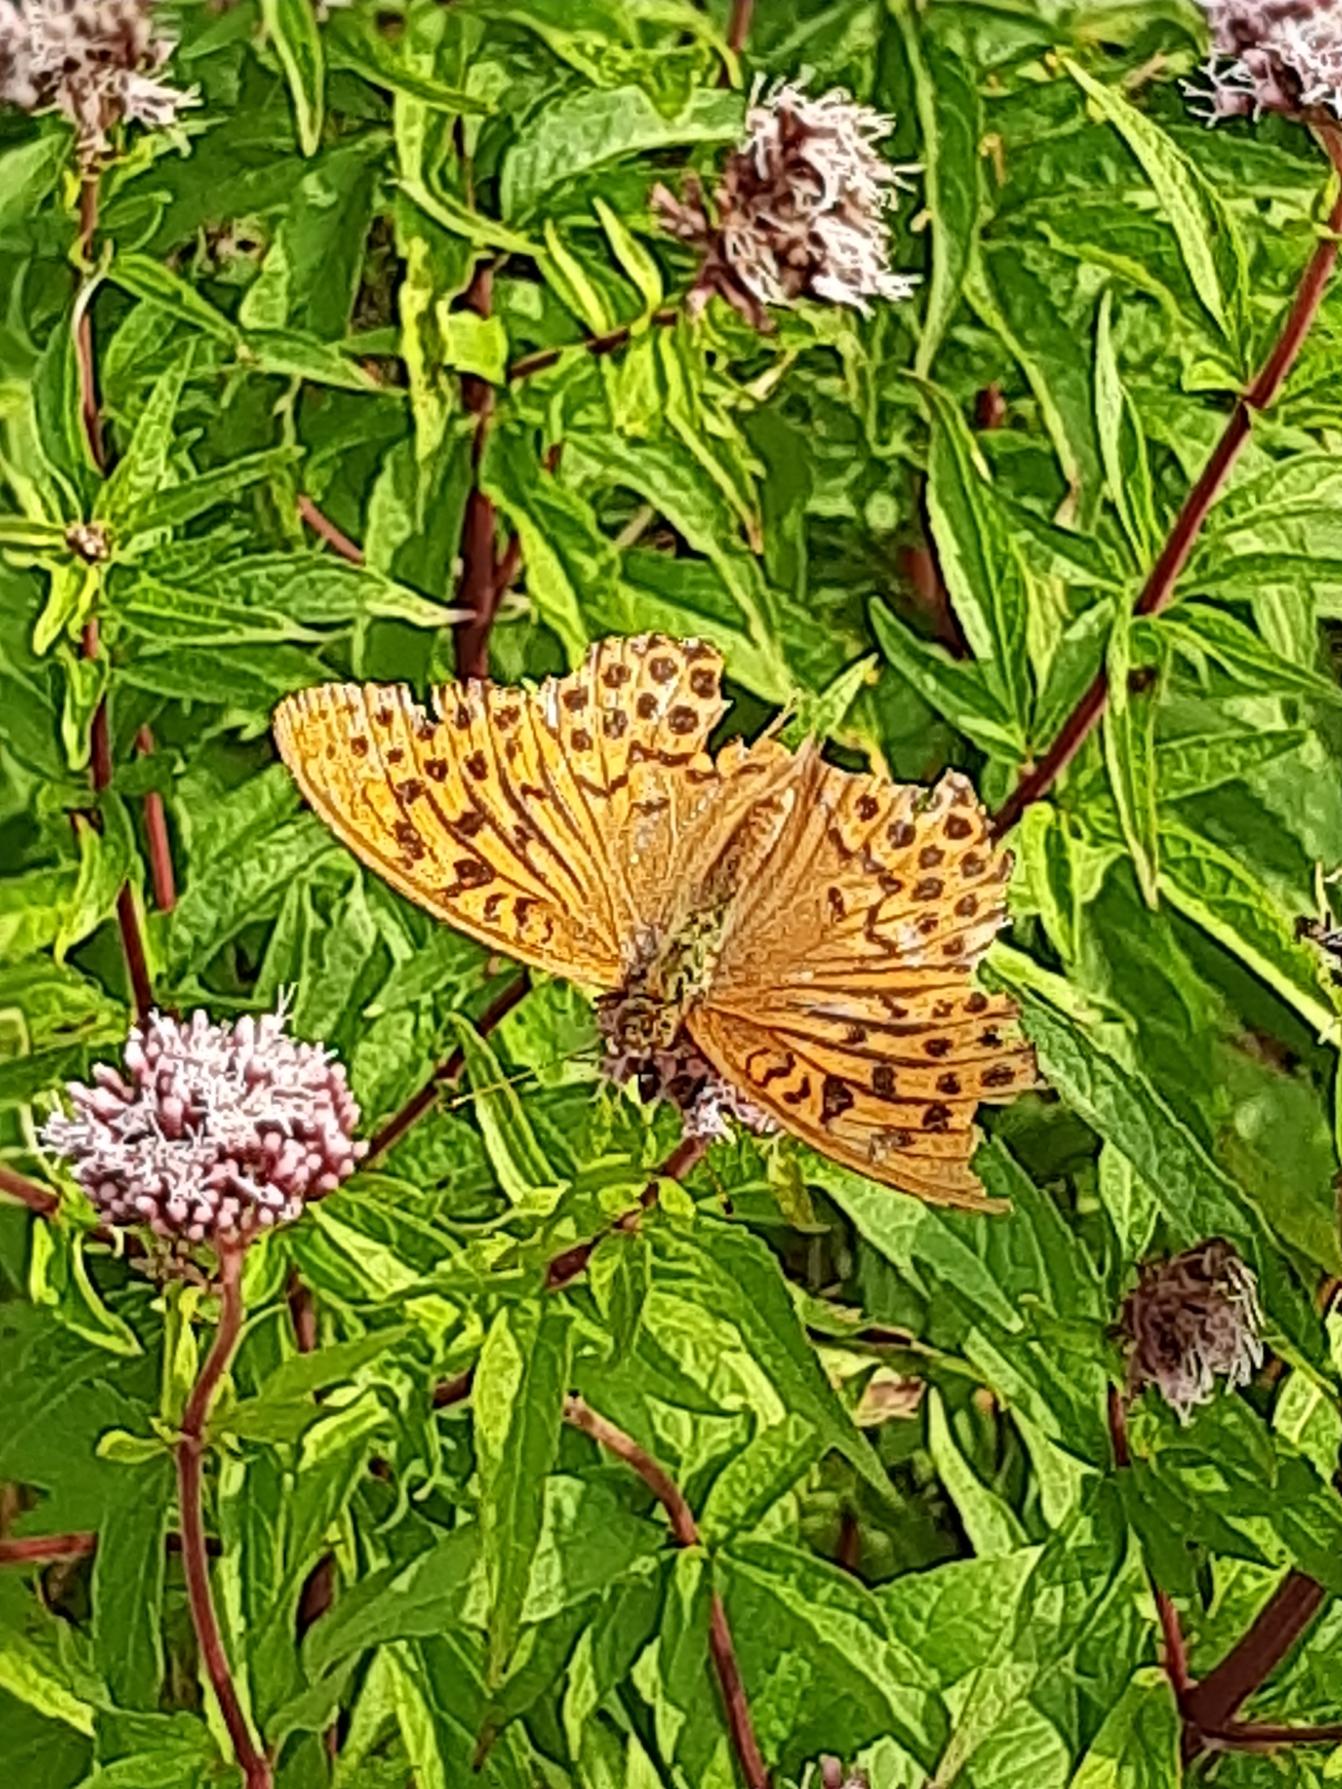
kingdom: Animalia
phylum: Arthropoda
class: Insecta
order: Lepidoptera
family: Nymphalidae
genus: Argynnis
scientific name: Argynnis paphia
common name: Kejserkåbe
